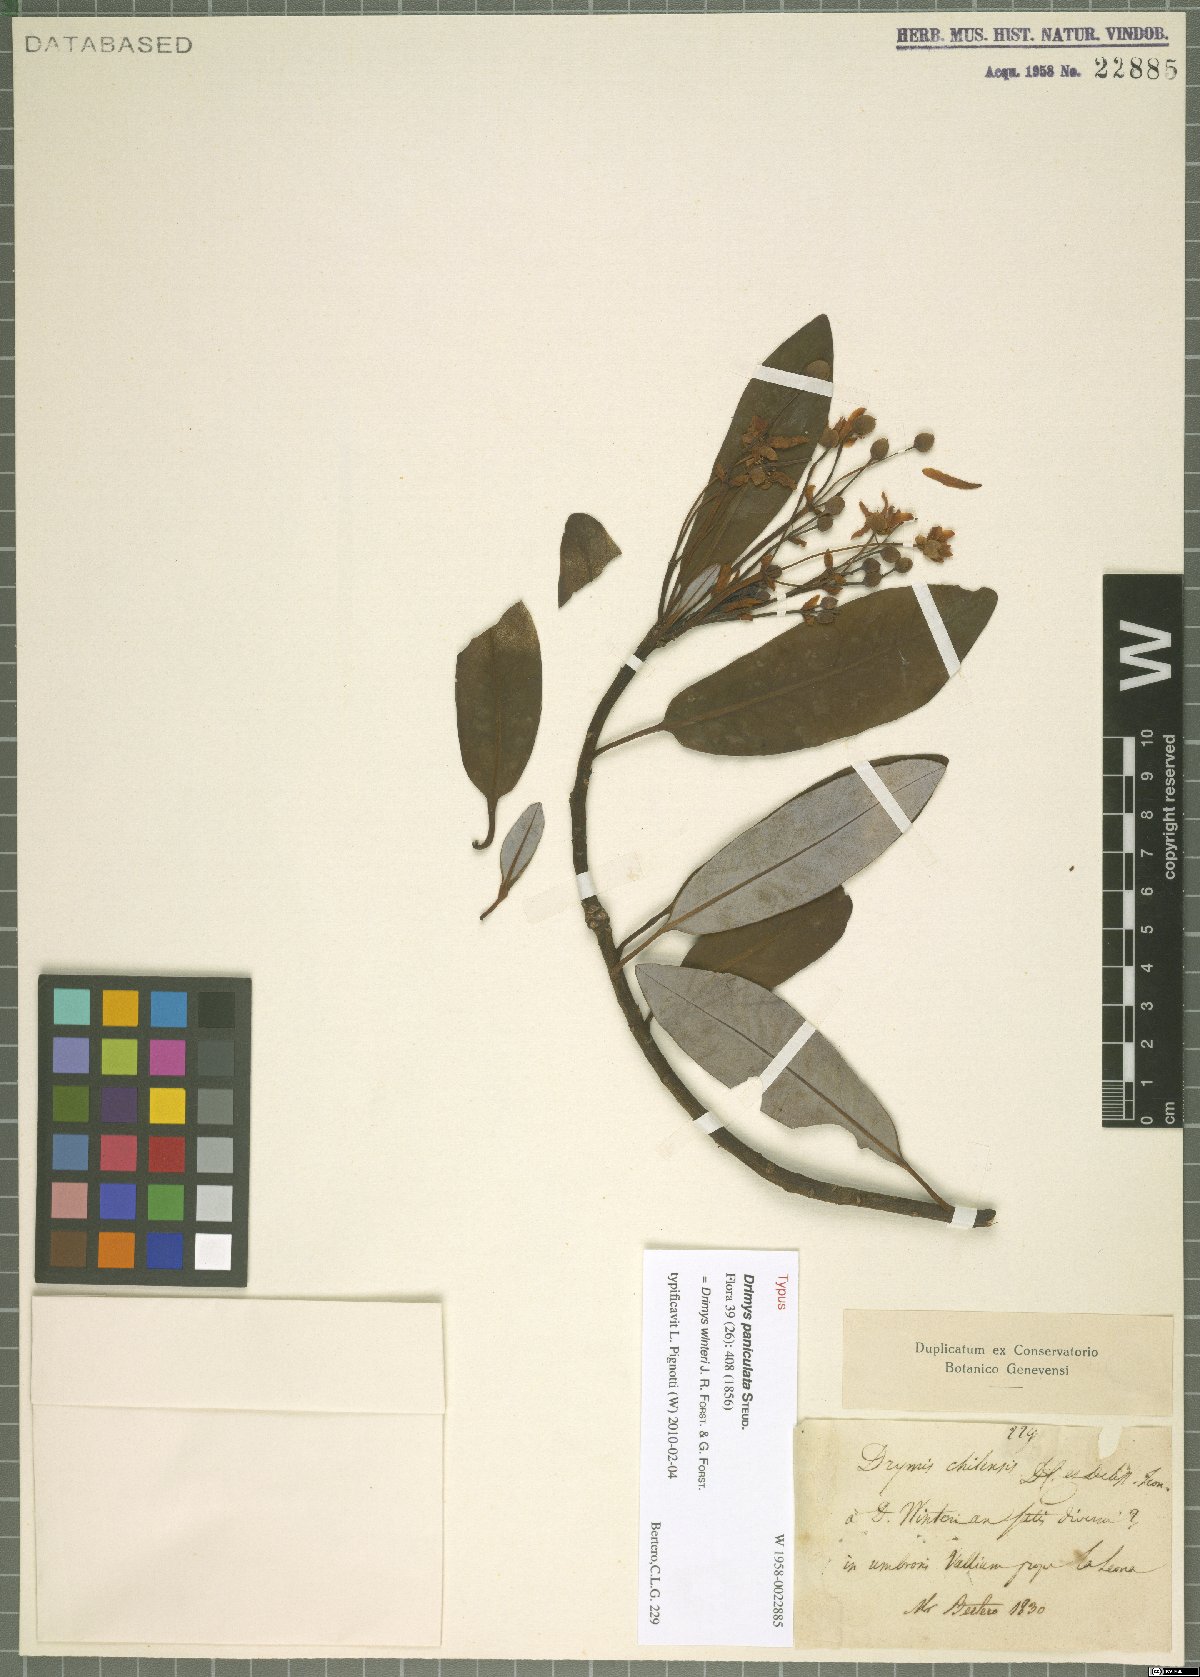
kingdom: Plantae
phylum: Tracheophyta
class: Magnoliopsida
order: Canellales
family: Winteraceae
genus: Drimys
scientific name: Drimys winteri
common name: Winter's-bark
